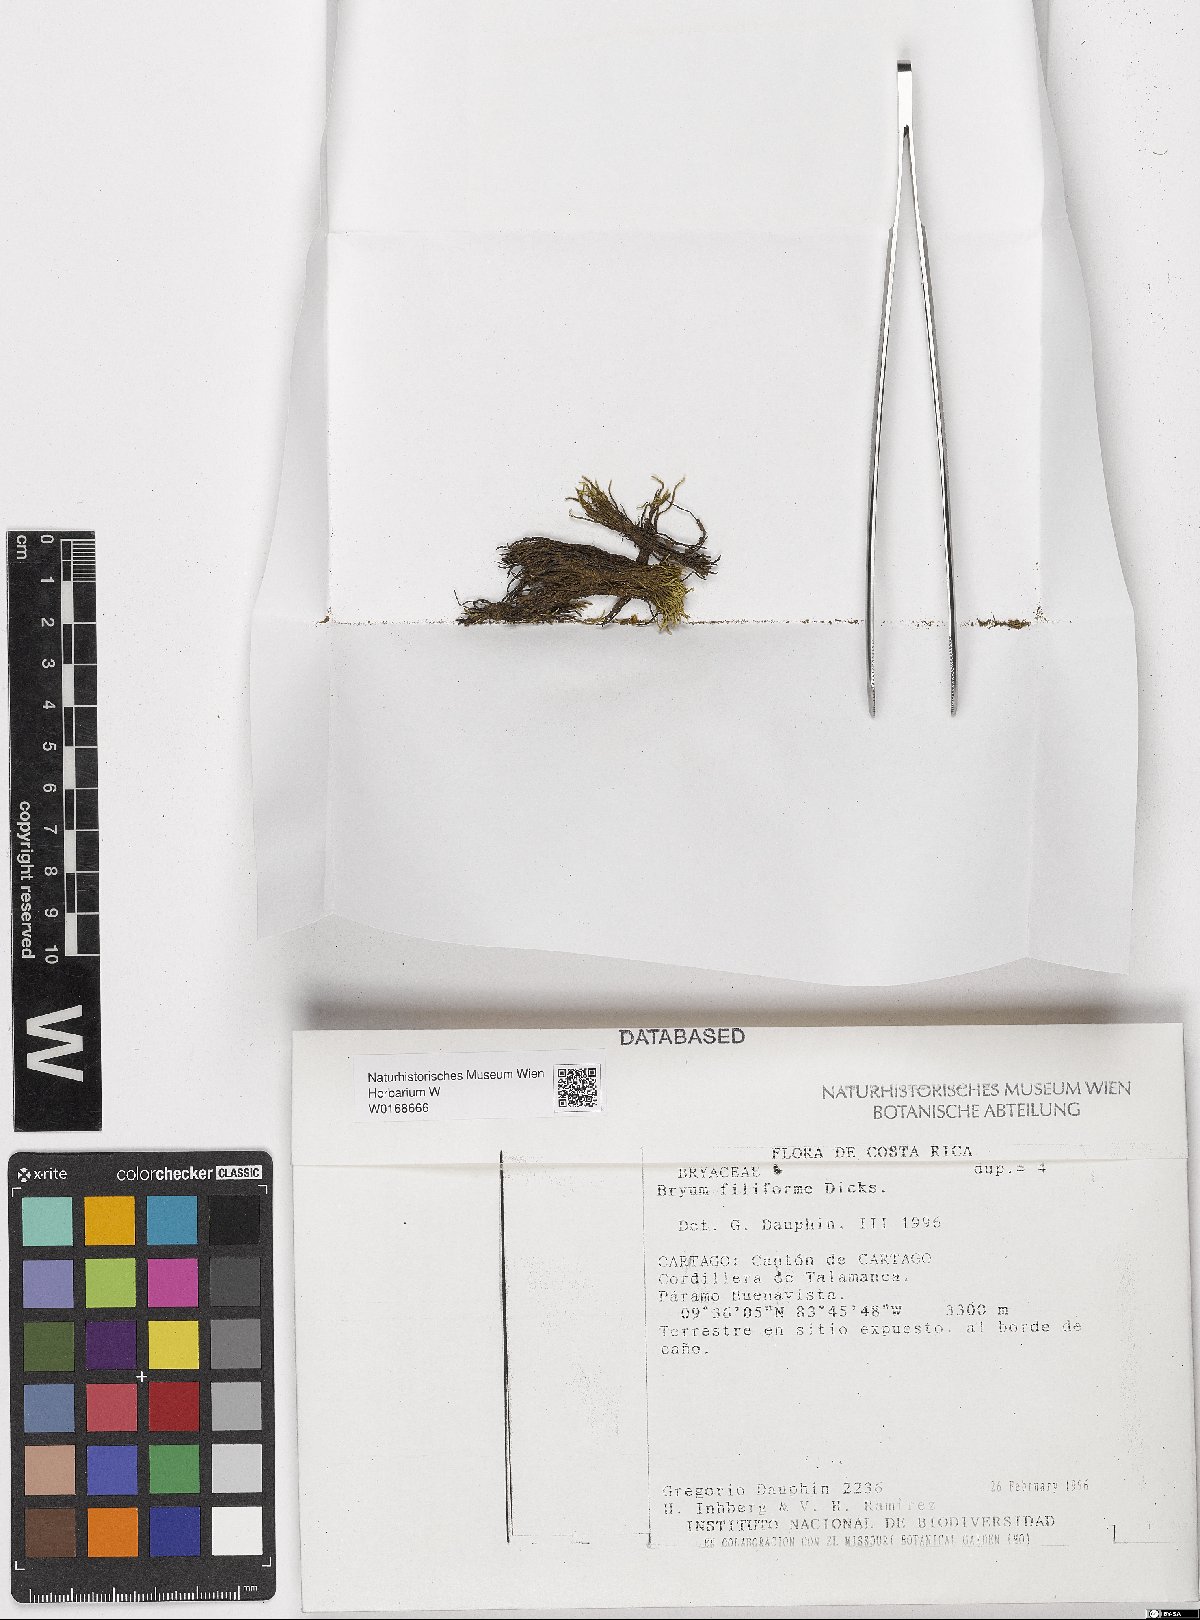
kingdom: Plantae
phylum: Bryophyta
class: Bryopsida
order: Bryales
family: Bryaceae
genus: Anomobryum
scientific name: Anomobryum julaceum
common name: Slender silver moss
